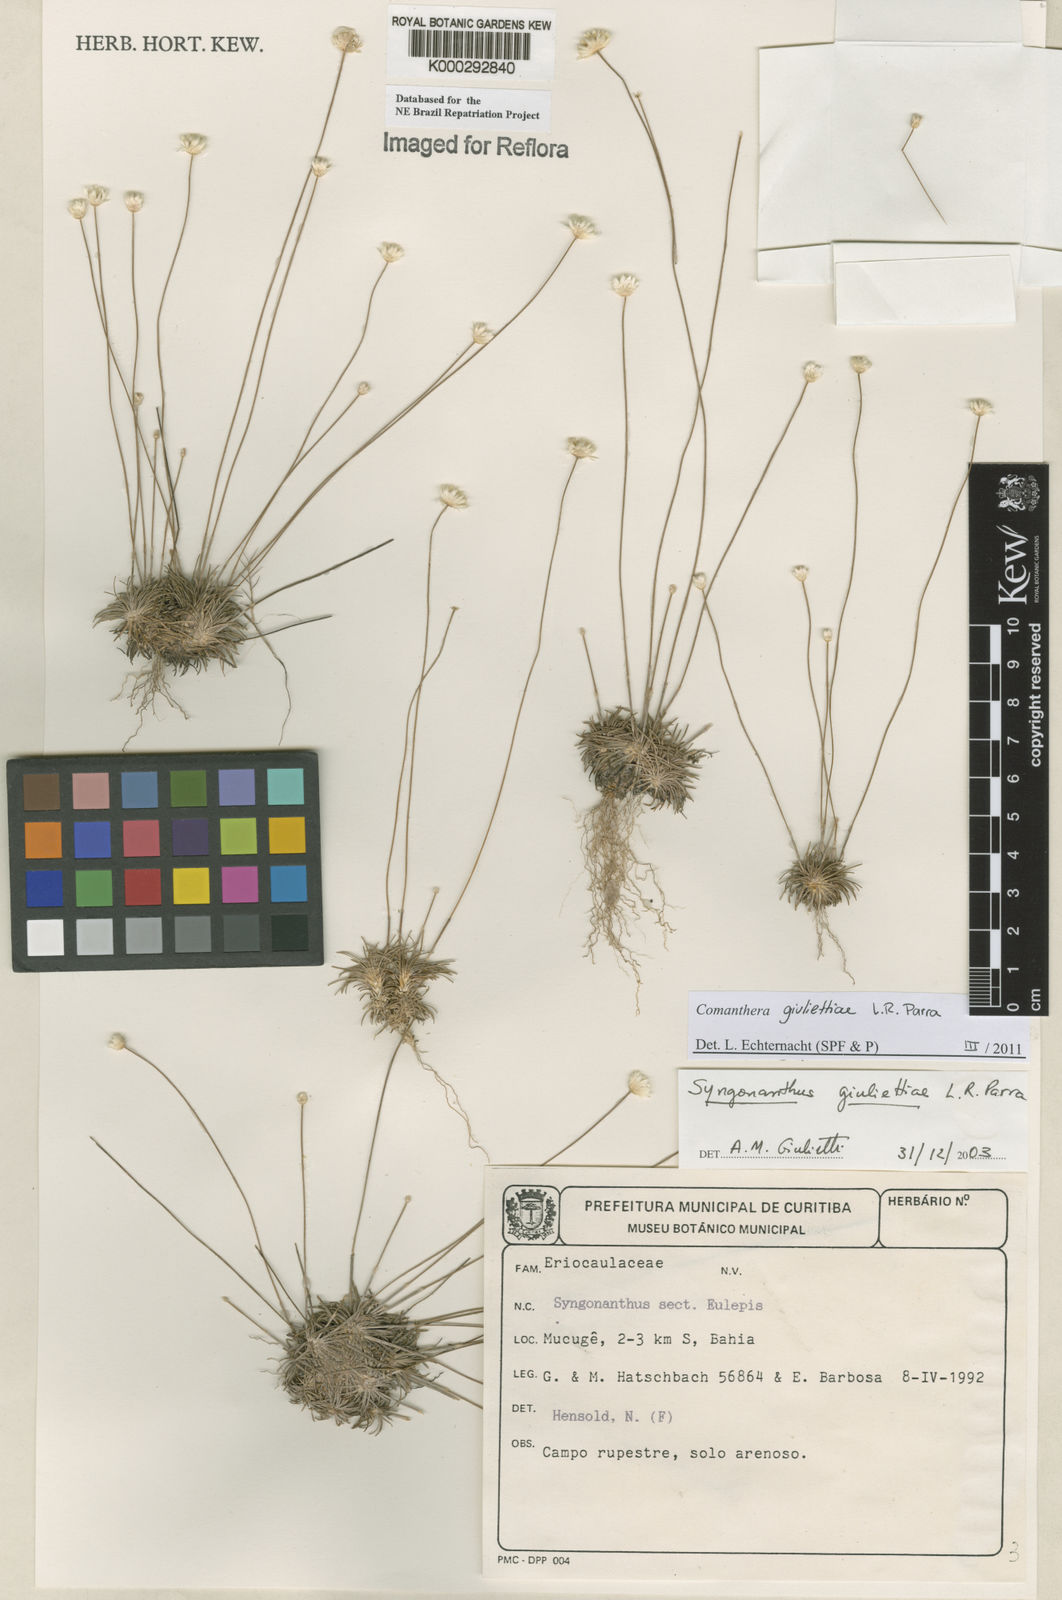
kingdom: Plantae
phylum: Tracheophyta
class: Liliopsida
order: Poales
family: Eriocaulaceae
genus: Syngonanthus
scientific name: Syngonanthus
